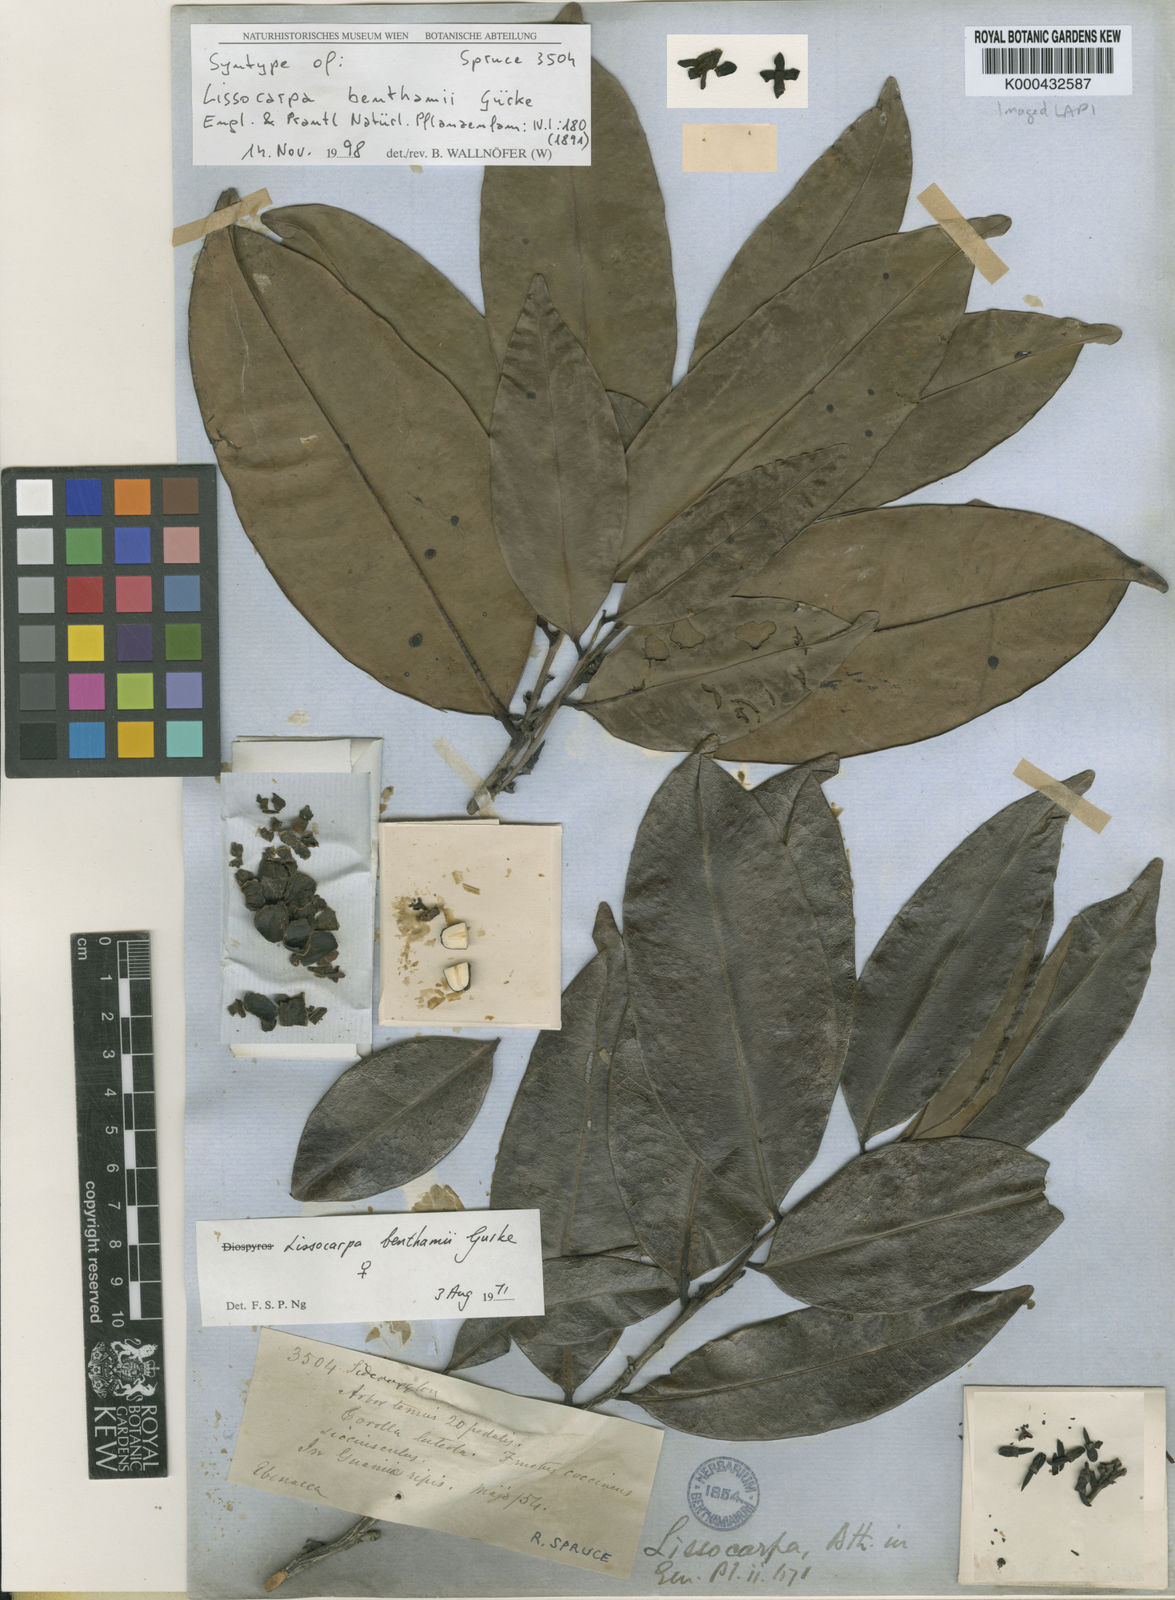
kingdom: Plantae
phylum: Tracheophyta
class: Magnoliopsida
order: Ericales
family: Ebenaceae
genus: Lissocarpa
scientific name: Lissocarpa
